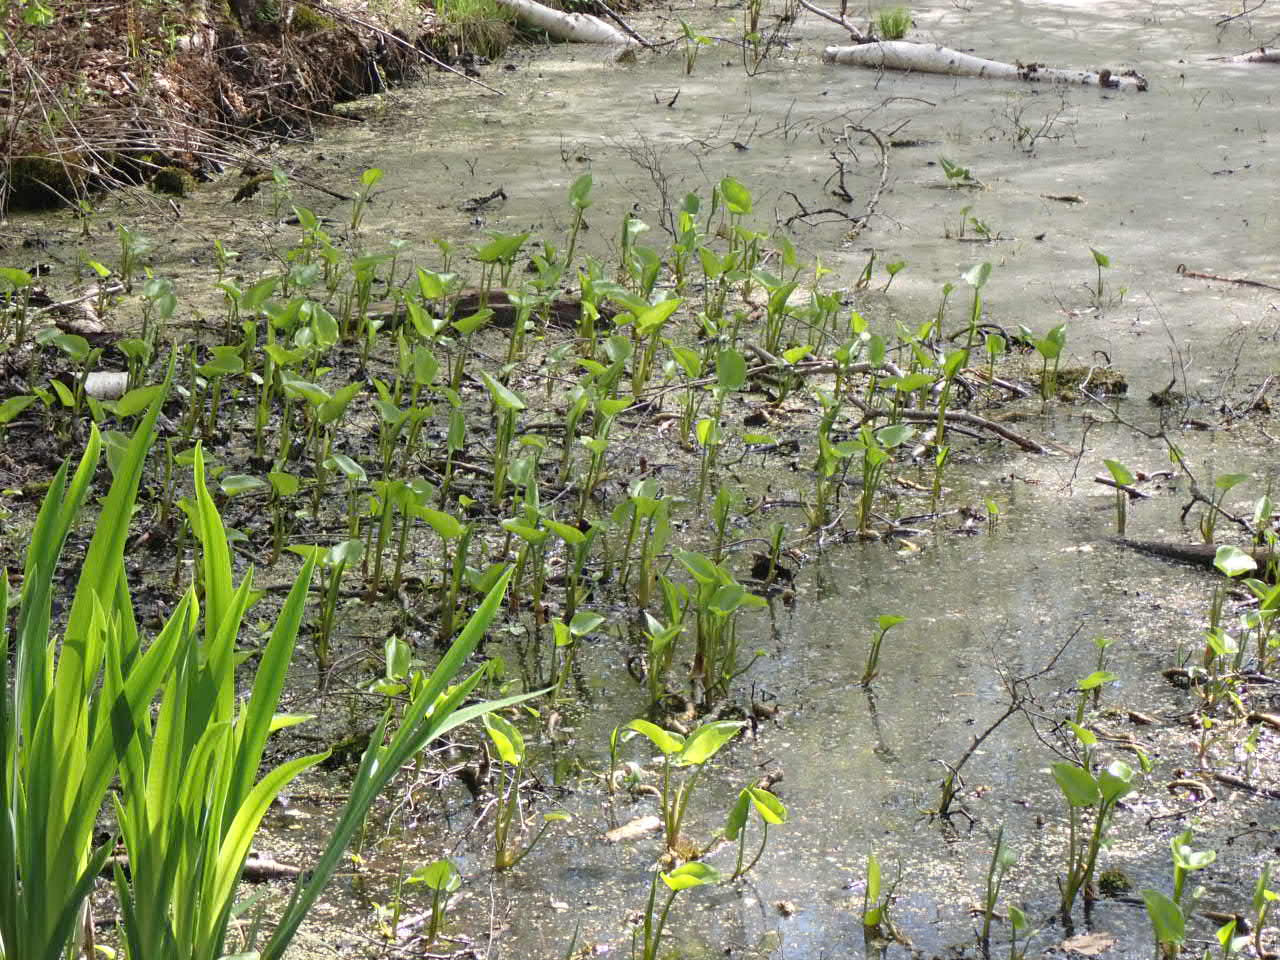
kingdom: Plantae
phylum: Tracheophyta
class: Liliopsida
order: Alismatales
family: Araceae
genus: Calla
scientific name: Calla palustris
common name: Kærmysse
